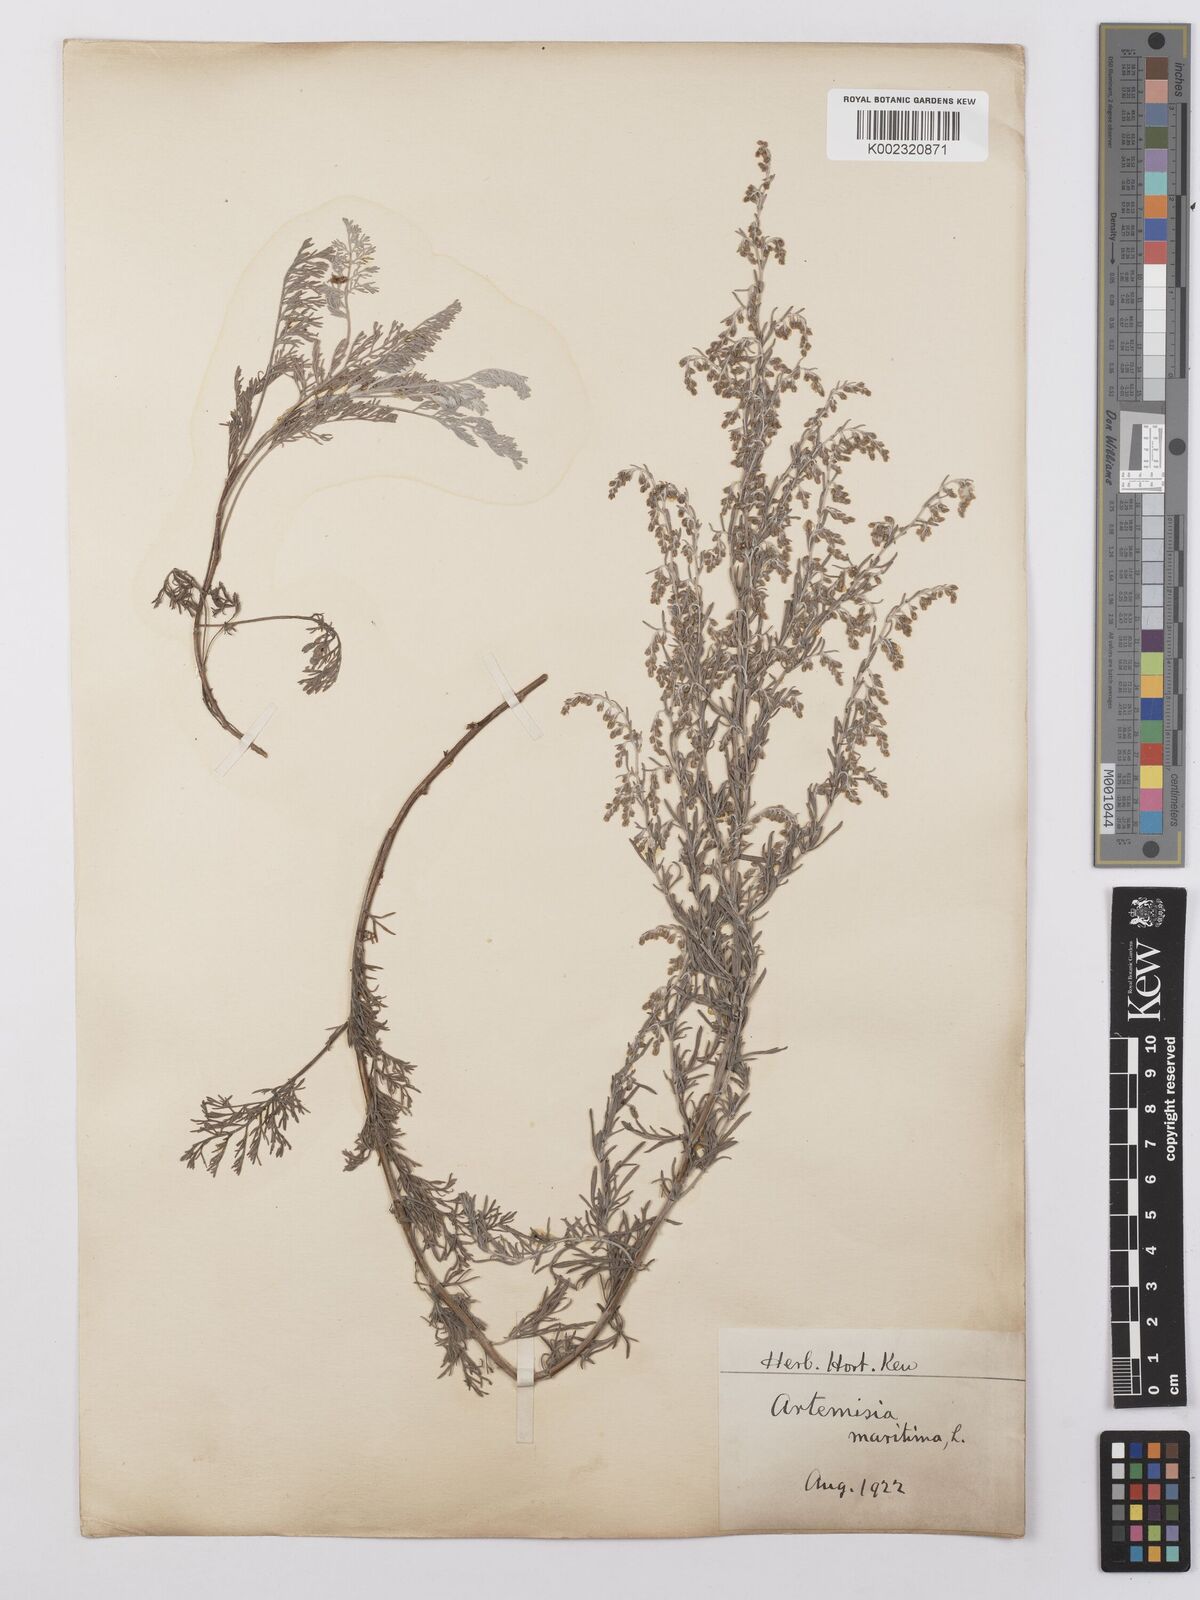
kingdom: Plantae
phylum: Tracheophyta
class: Magnoliopsida
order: Asterales
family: Asteraceae
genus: Artemisia
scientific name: Artemisia maritima
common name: Wormseed
